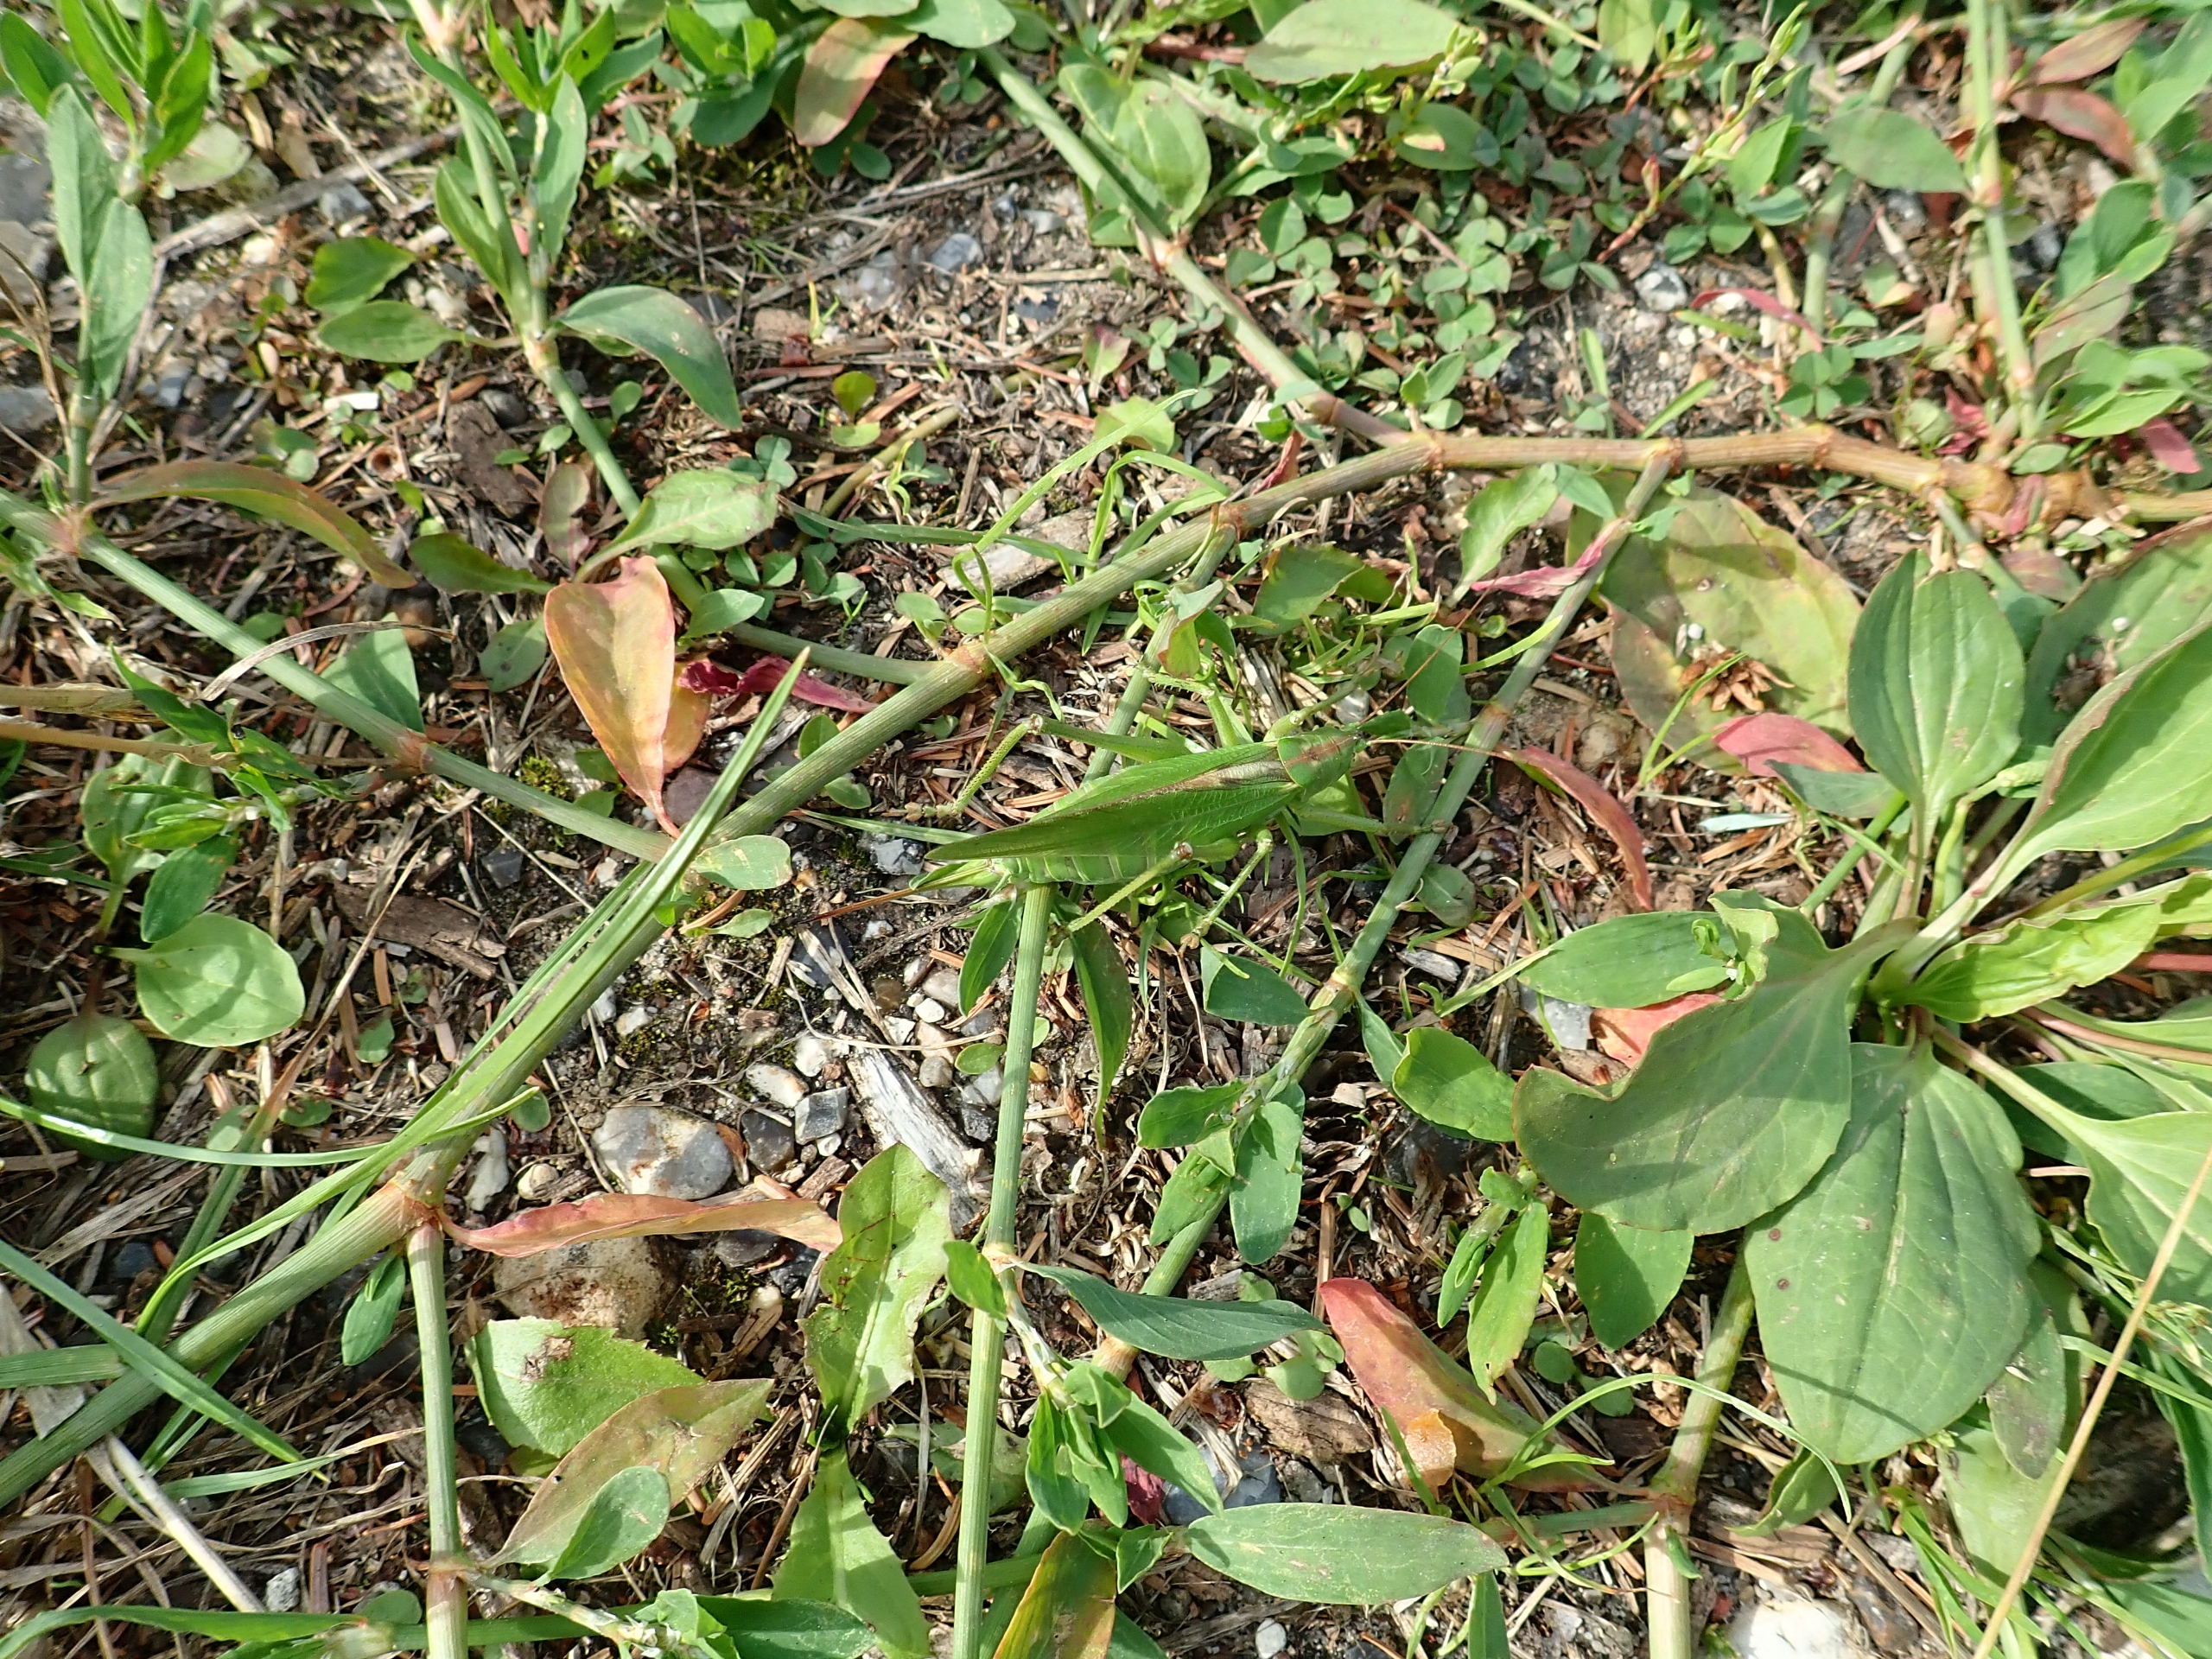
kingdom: Animalia
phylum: Arthropoda
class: Insecta
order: Orthoptera
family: Tettigoniidae
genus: Tettigonia
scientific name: Tettigonia viridissima
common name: Stor grøn løvgræshoppe
